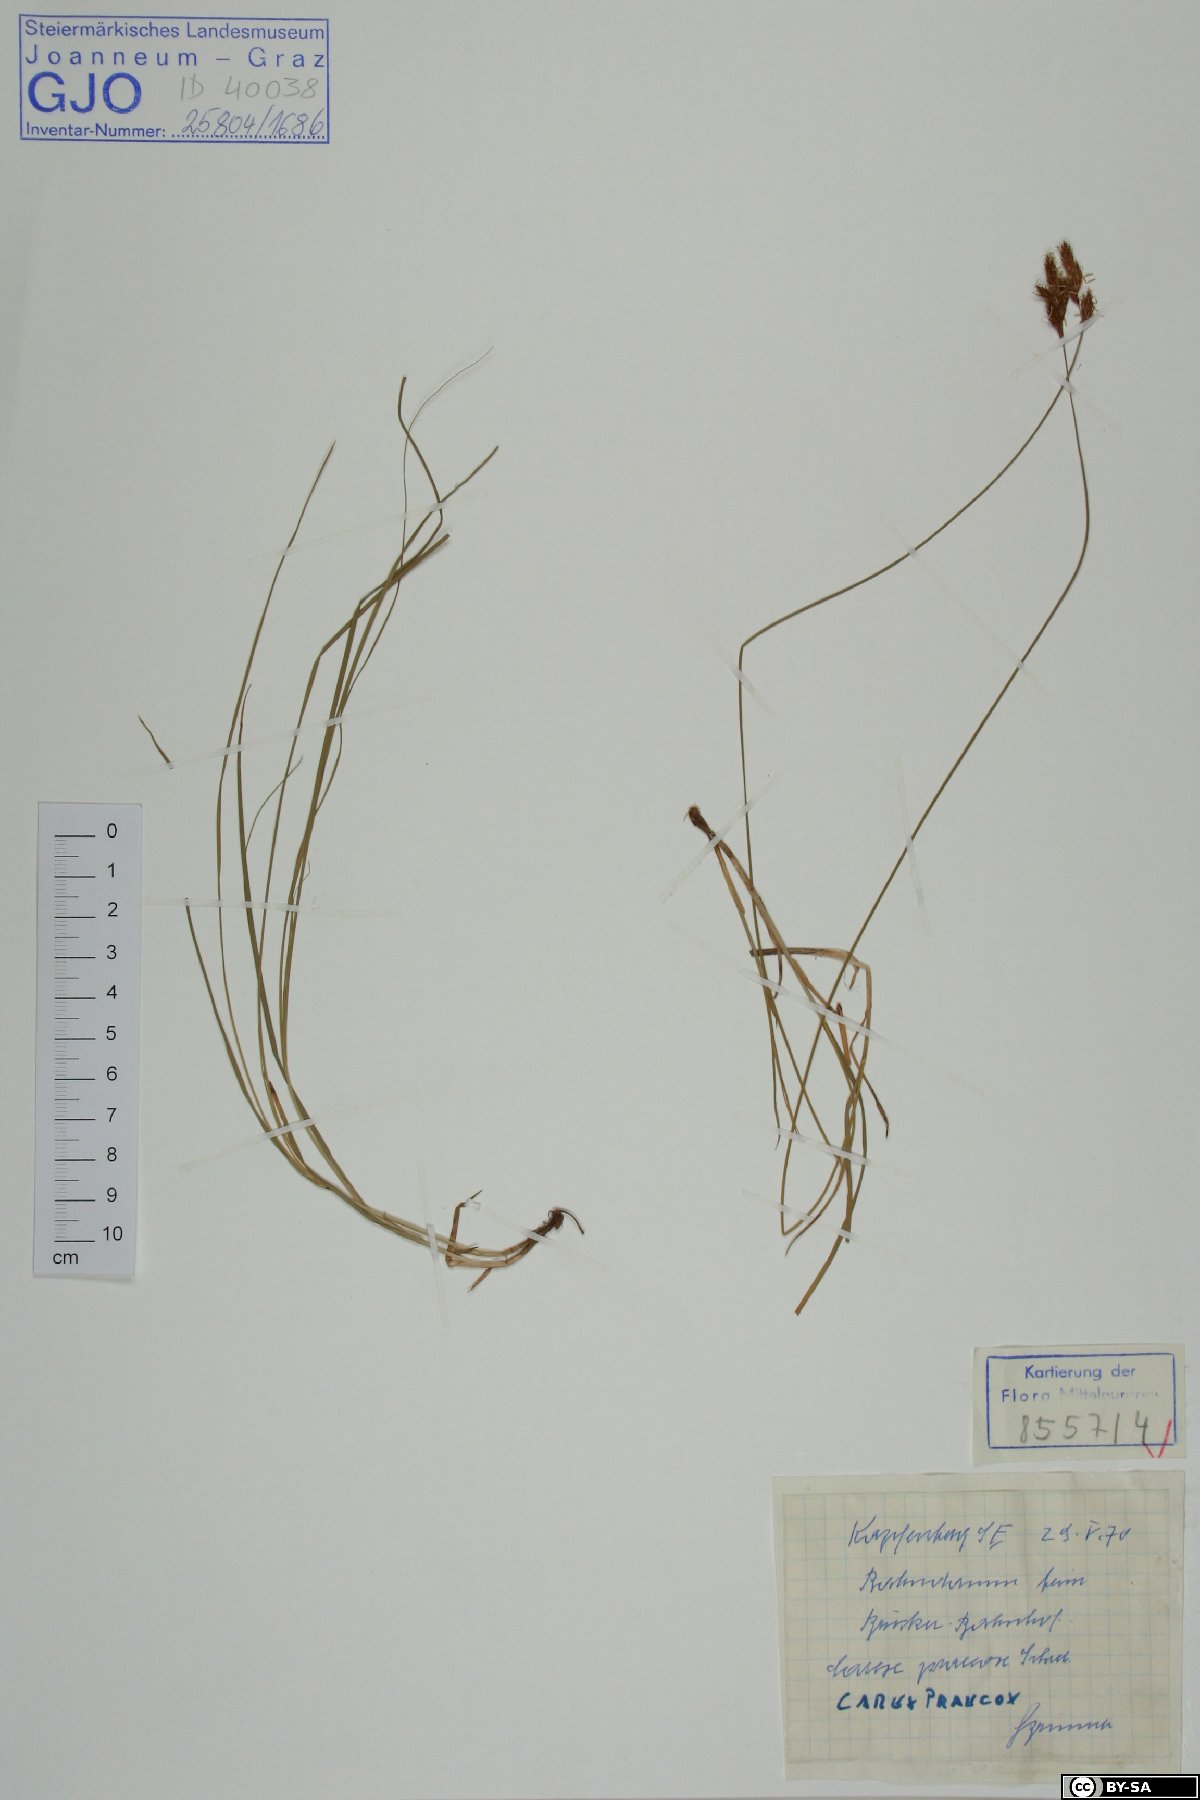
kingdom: Plantae
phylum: Tracheophyta
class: Liliopsida
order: Poales
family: Cyperaceae
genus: Carex
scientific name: Carex praecox
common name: Early sedge
